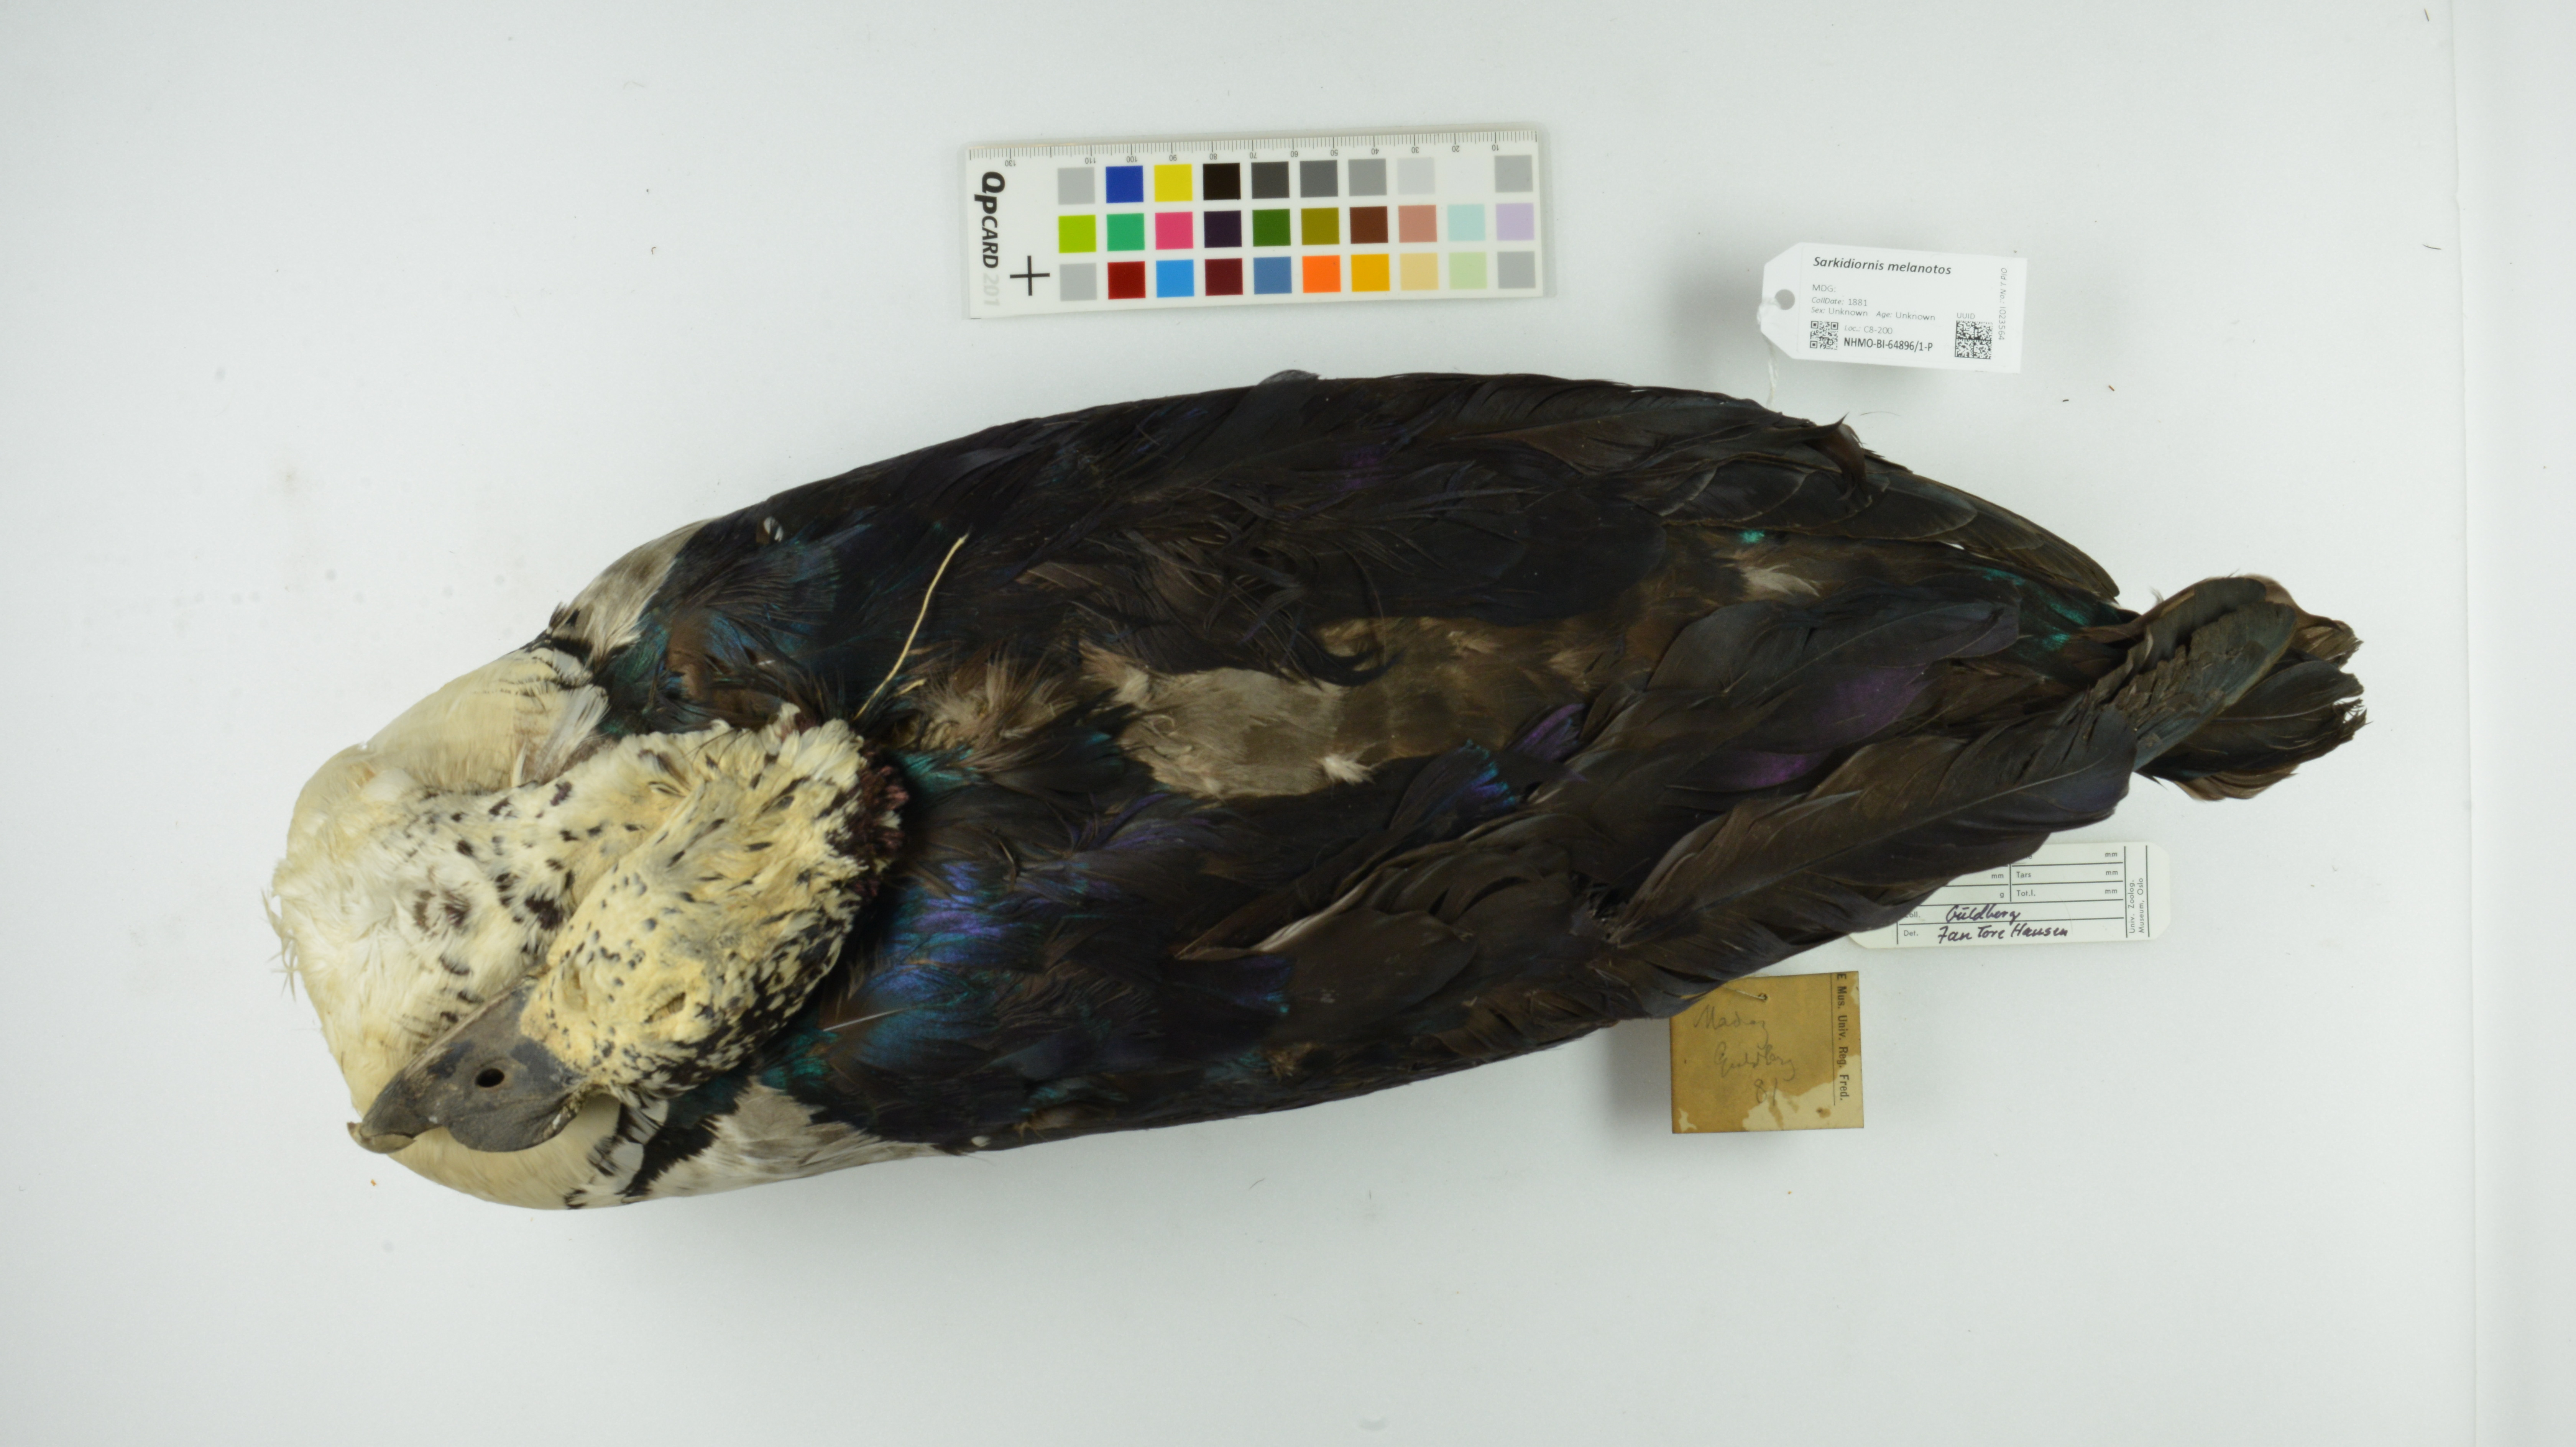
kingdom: Animalia
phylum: Chordata
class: Aves
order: Anseriformes
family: Anatidae
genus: Sarkidiornis
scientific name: Sarkidiornis melanotos
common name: Comb duck
